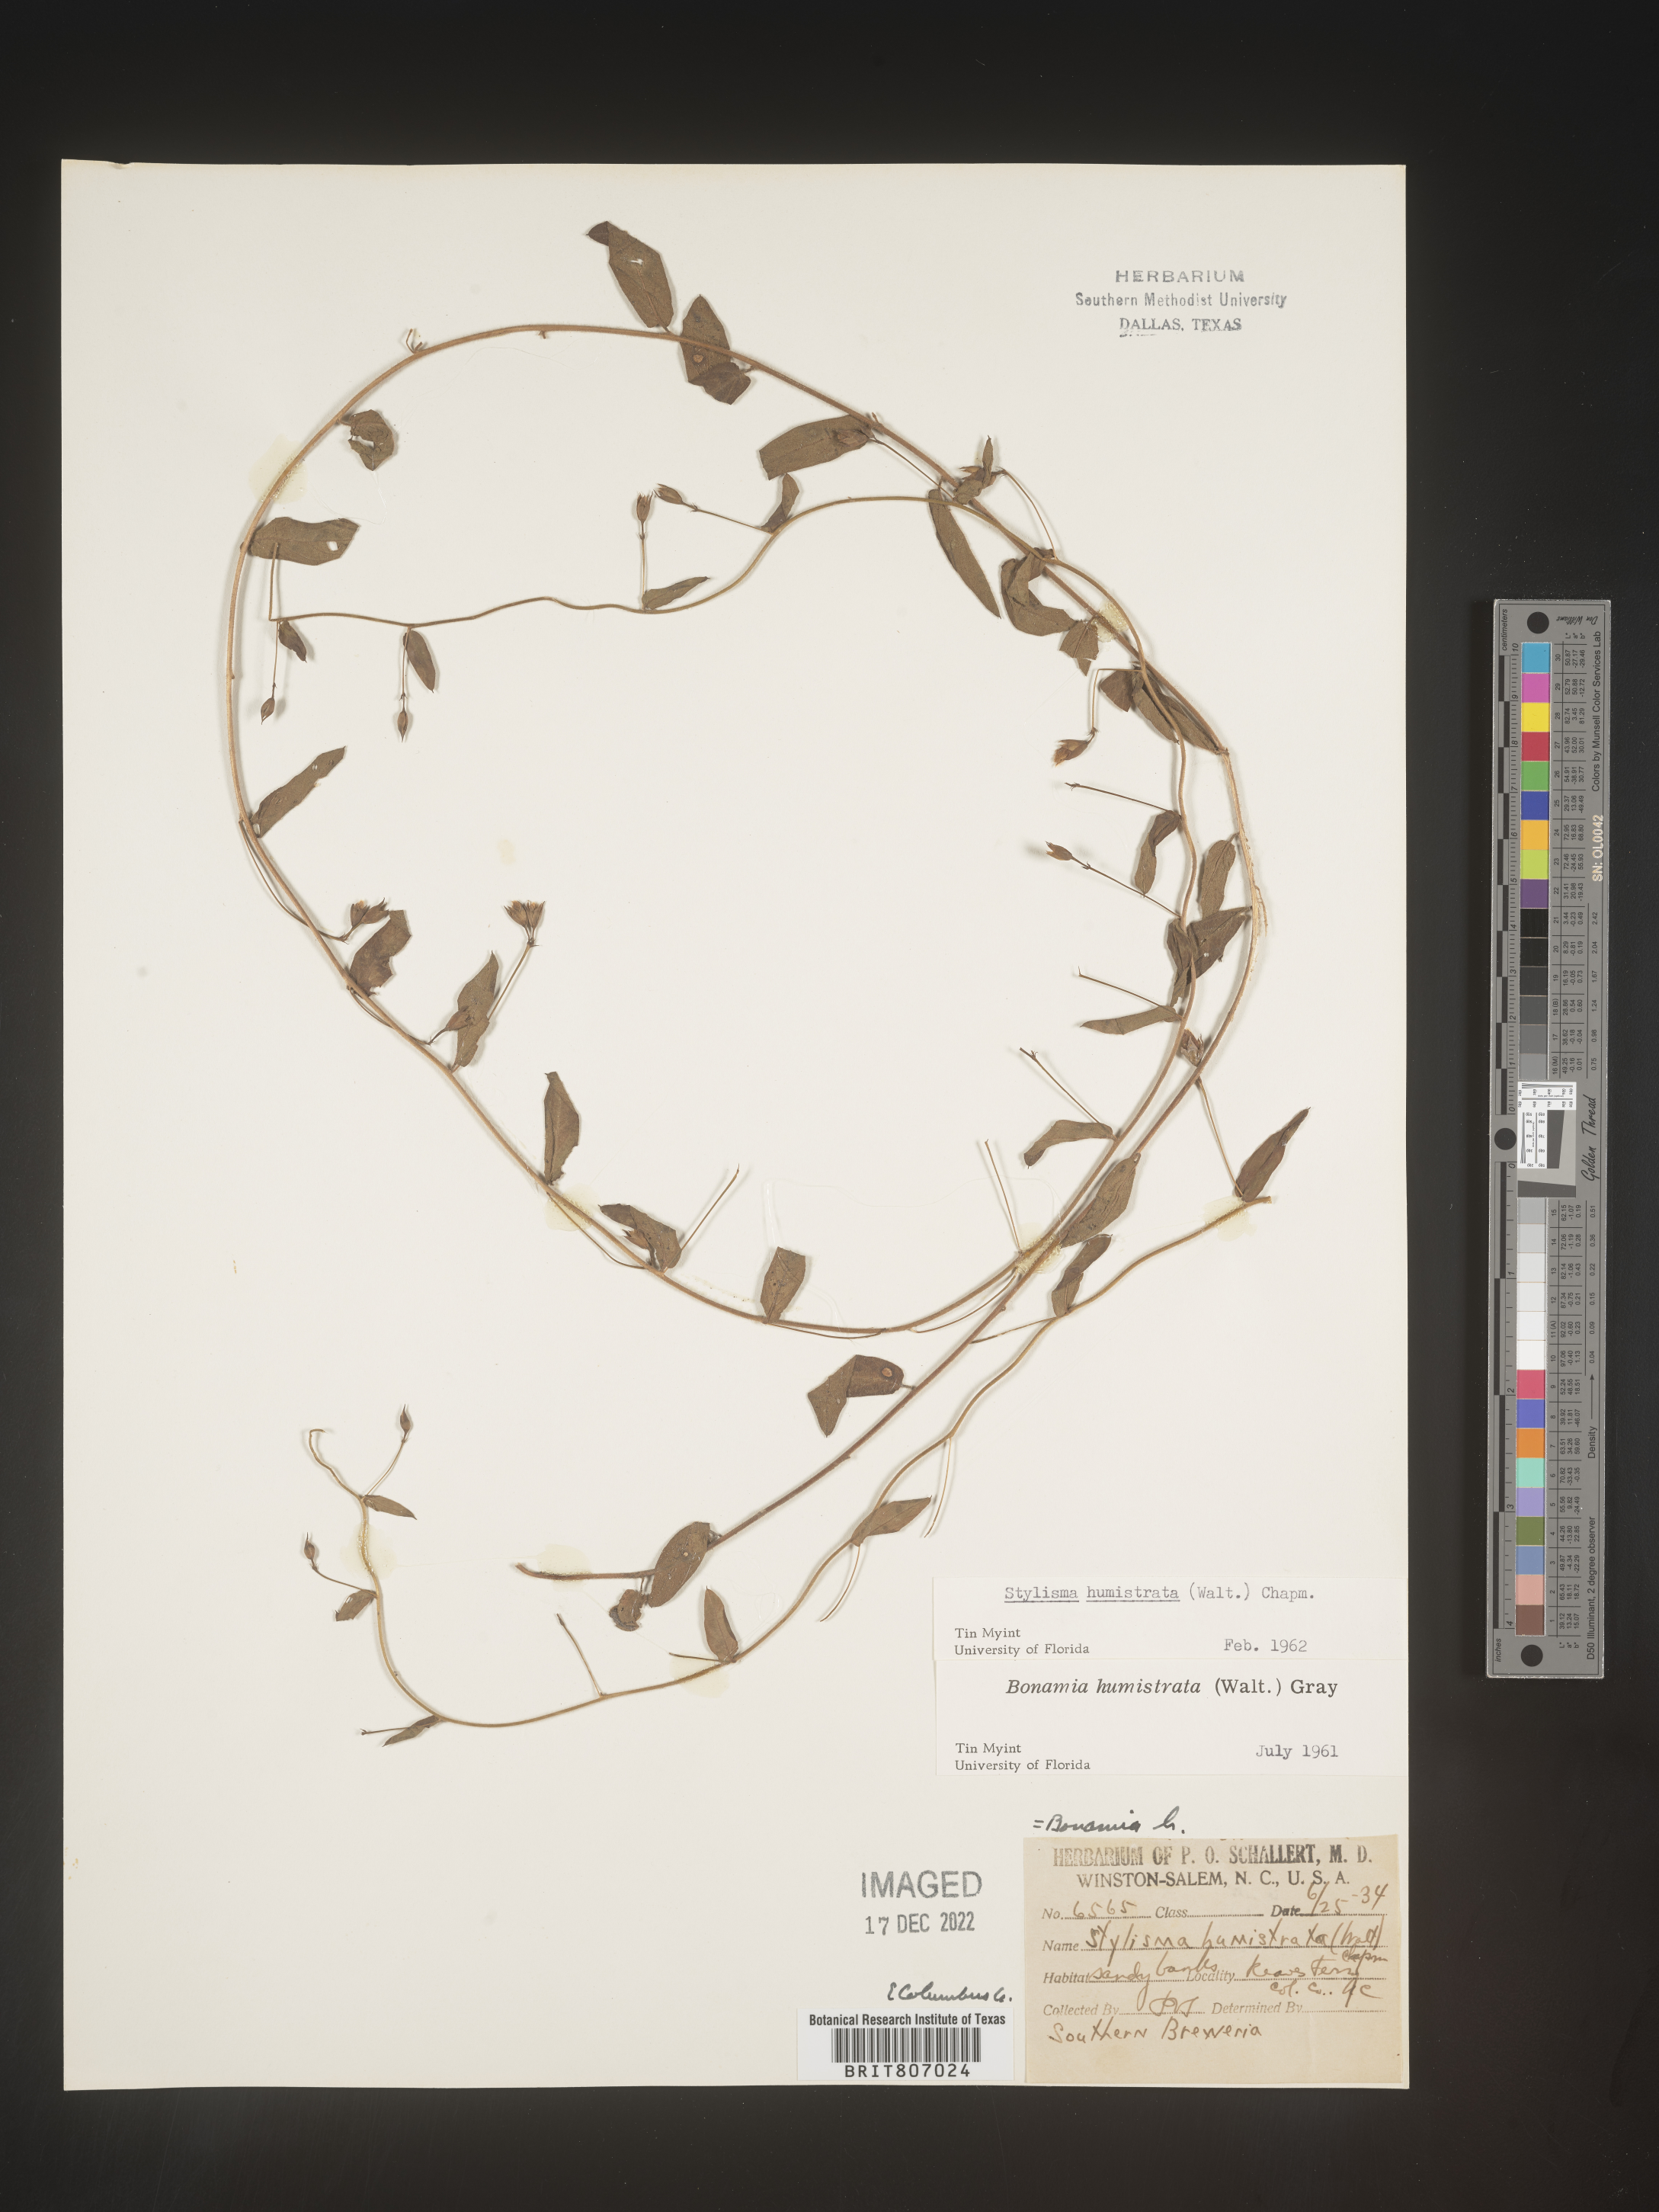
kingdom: Plantae
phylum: Tracheophyta
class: Magnoliopsida
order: Solanales
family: Convolvulaceae
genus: Stylisma
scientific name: Stylisma humistrata
